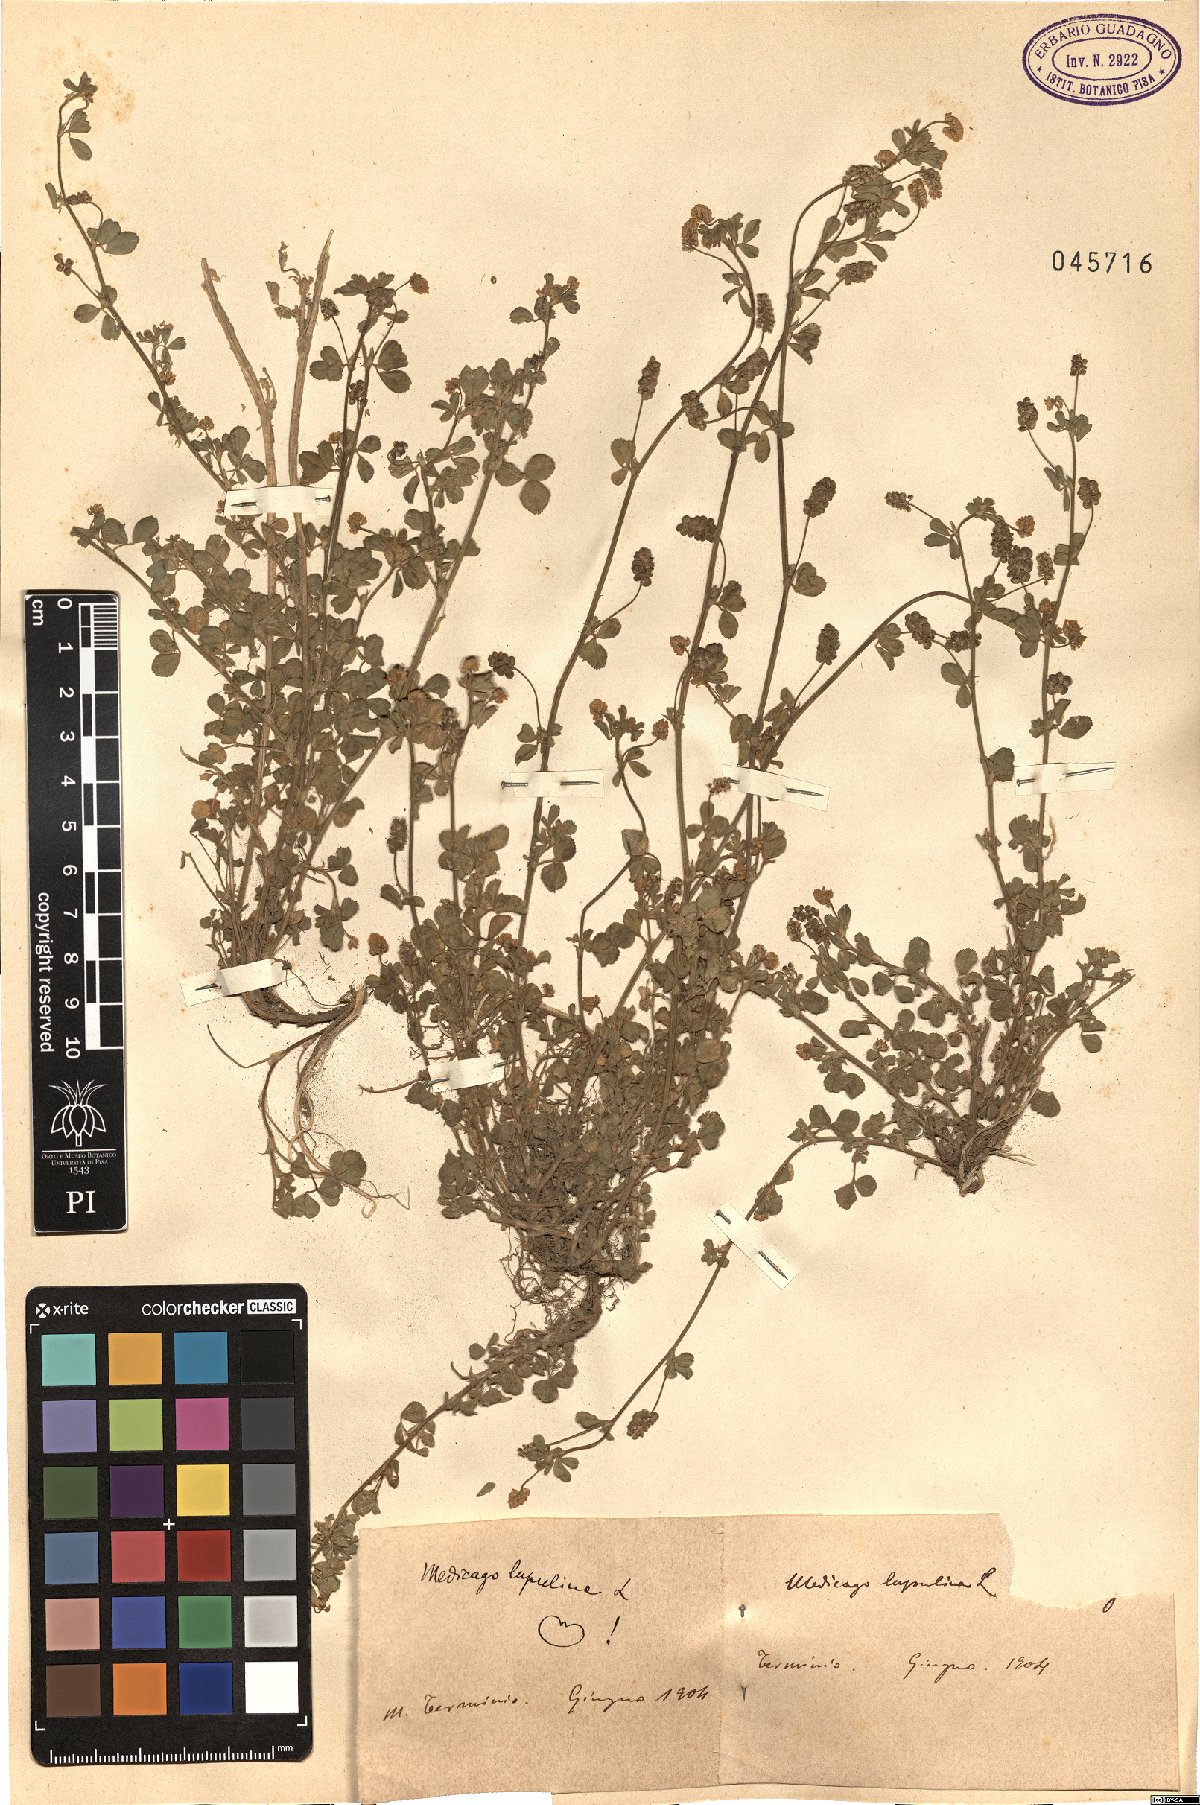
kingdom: Plantae
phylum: Tracheophyta
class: Magnoliopsida
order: Fabales
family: Fabaceae
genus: Medicago
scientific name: Medicago lupulina
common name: Black medick
